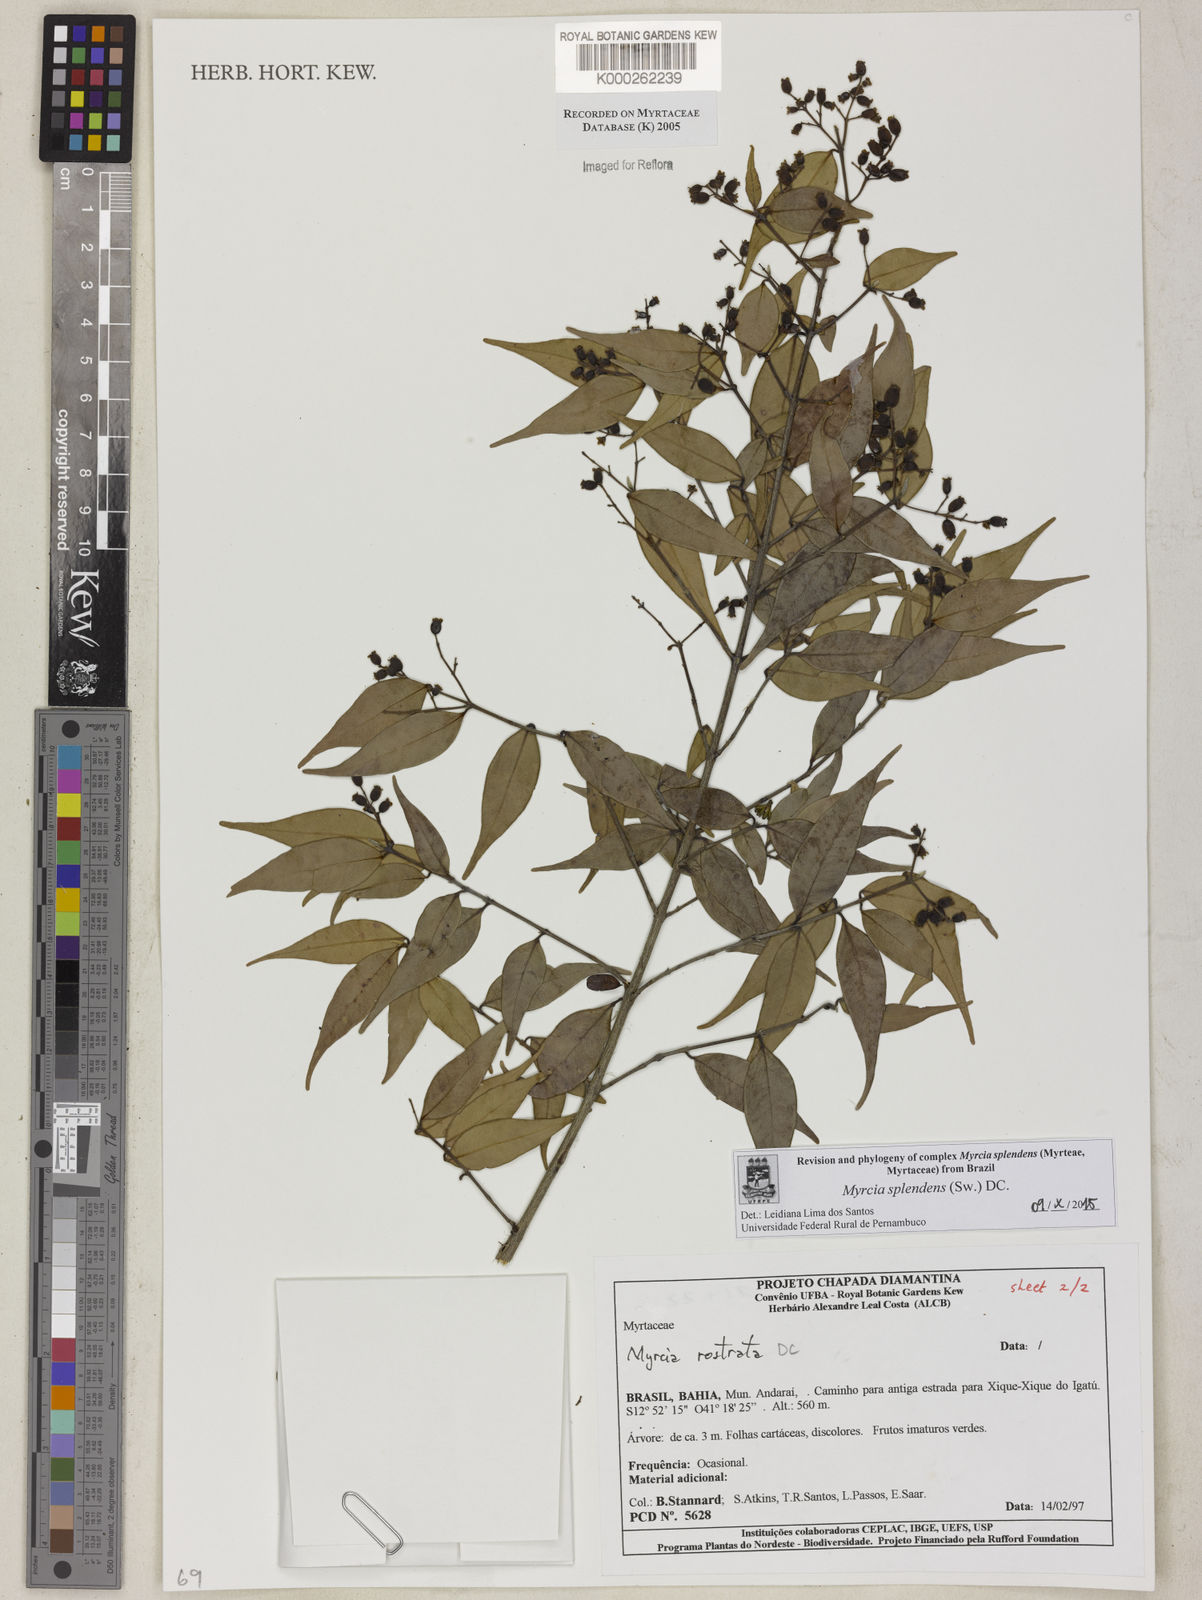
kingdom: Plantae
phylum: Tracheophyta
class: Magnoliopsida
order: Myrtales
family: Myrtaceae
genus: Myrcia
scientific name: Myrcia splendens
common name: Surinam cherry
